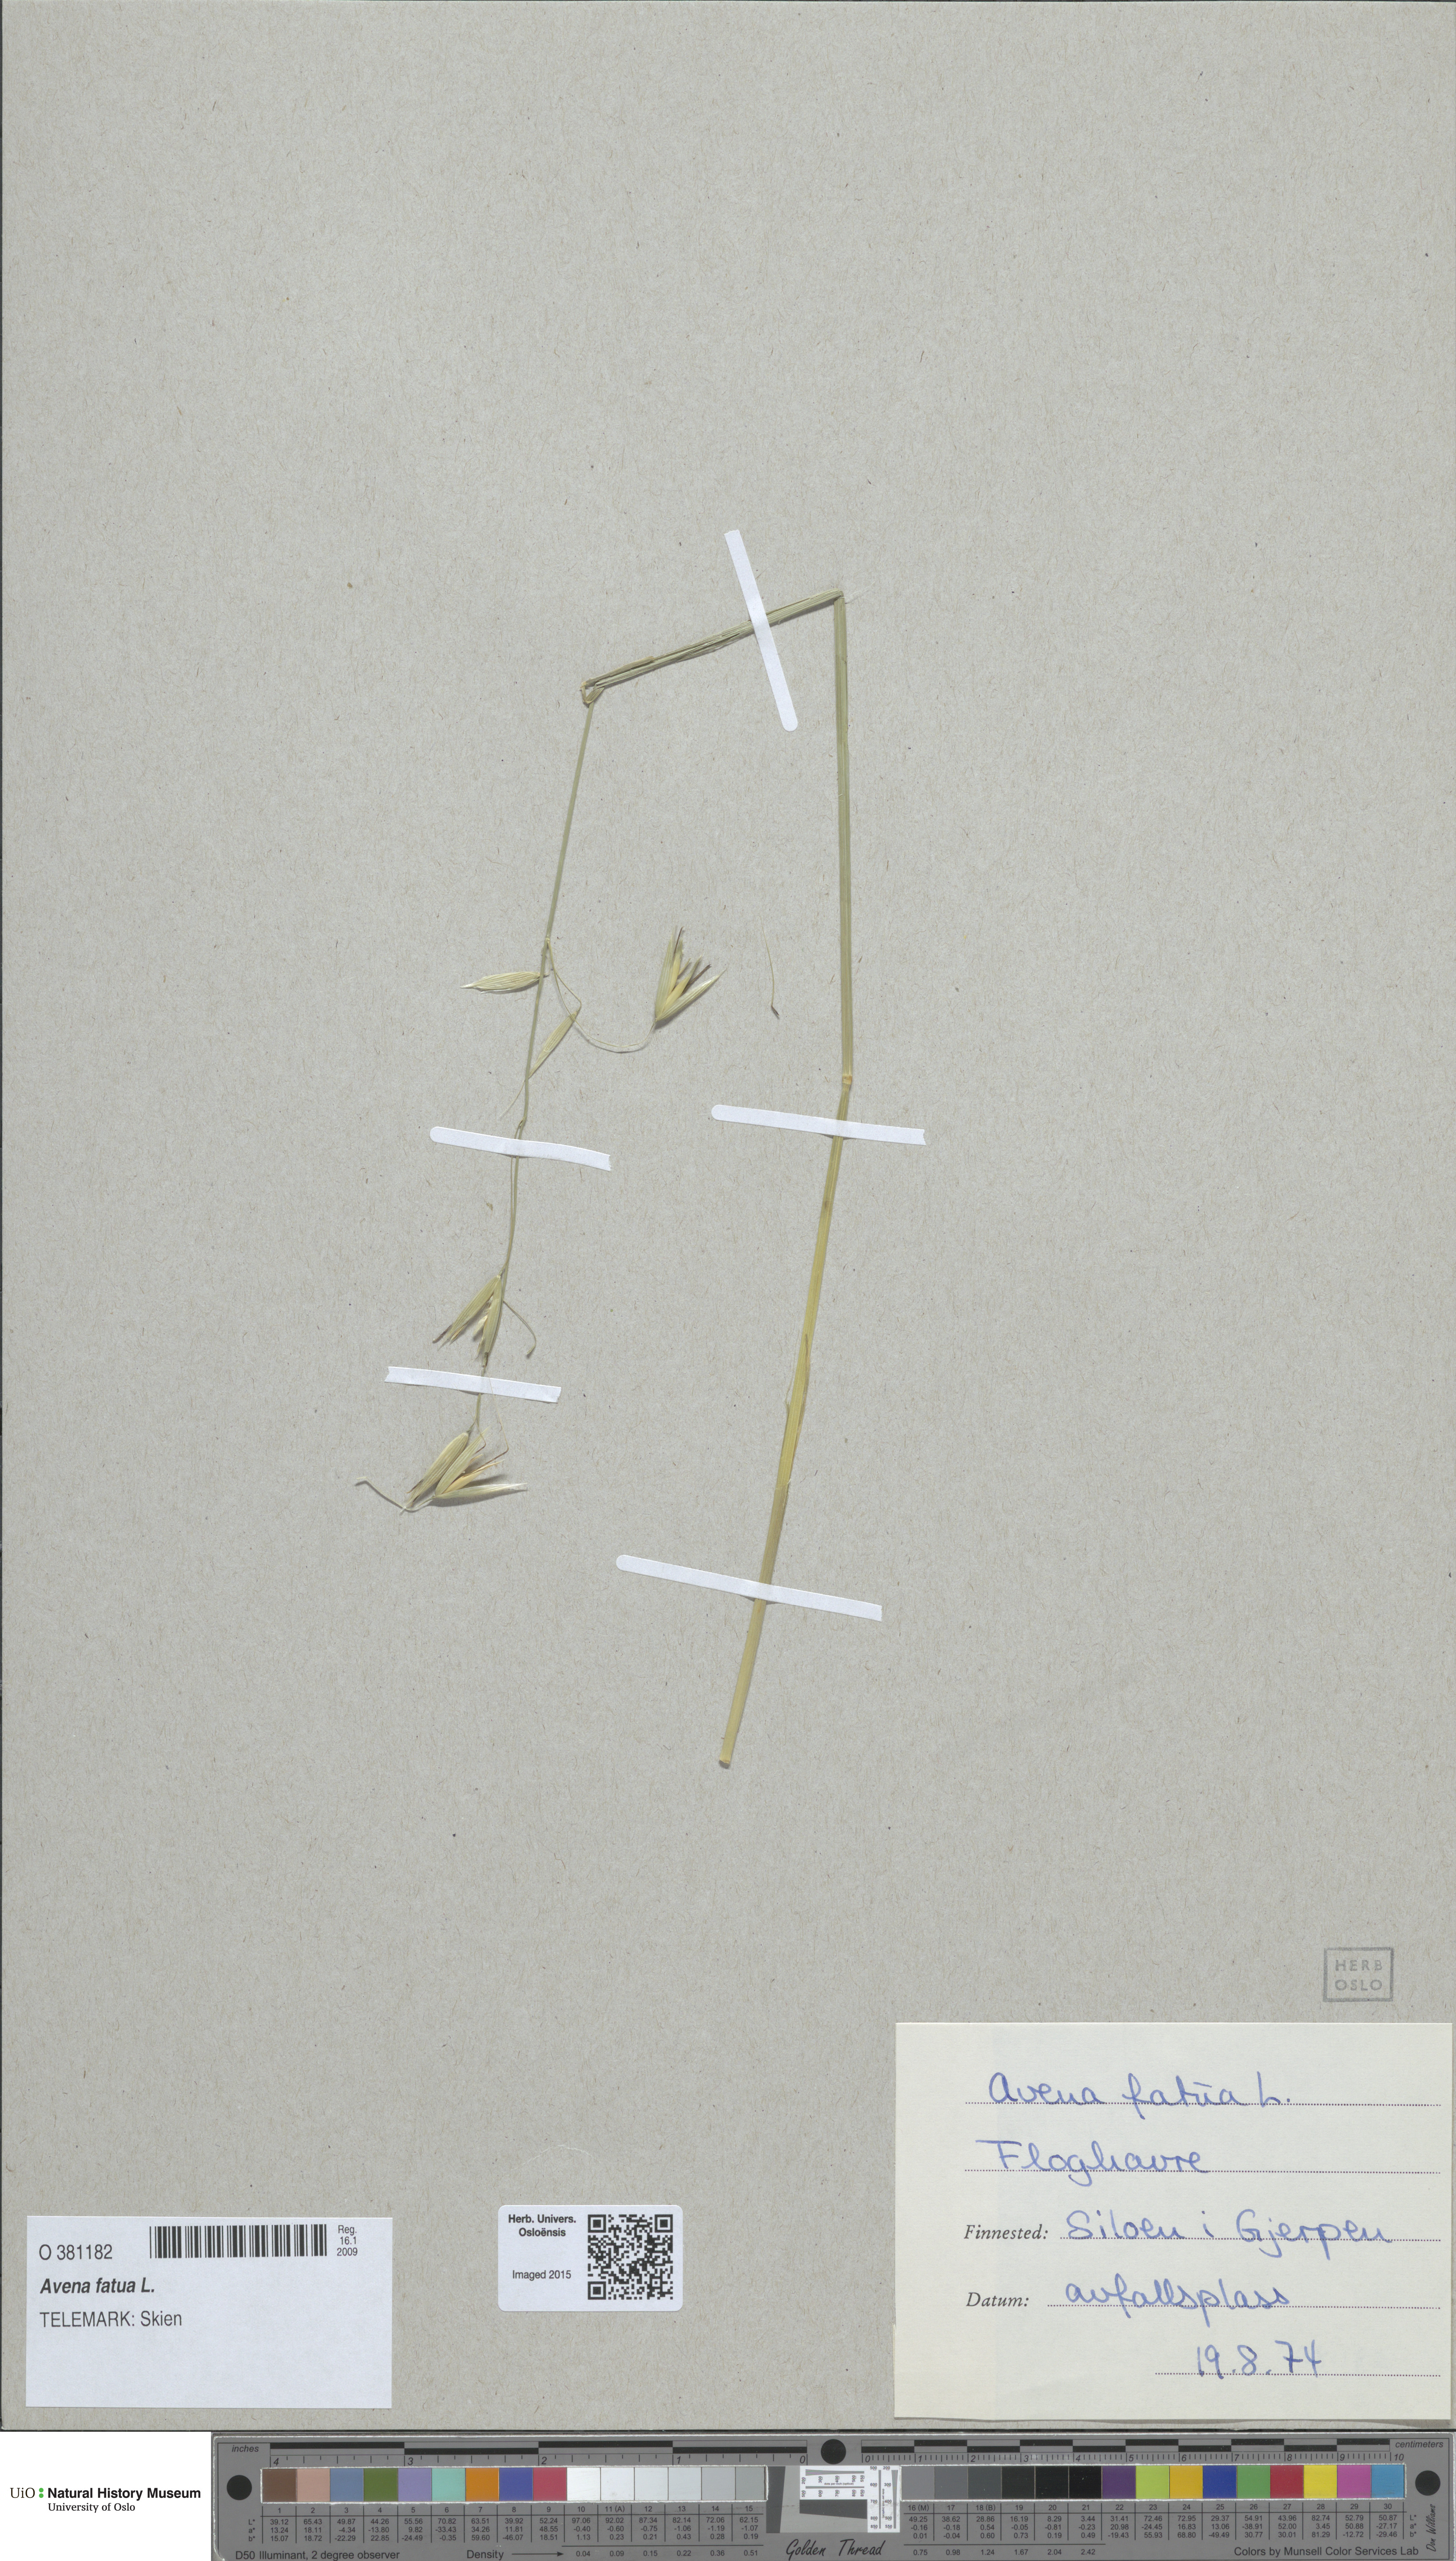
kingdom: Plantae
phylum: Tracheophyta
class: Liliopsida
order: Poales
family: Poaceae
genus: Avena
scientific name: Avena fatua
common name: Wild oat
